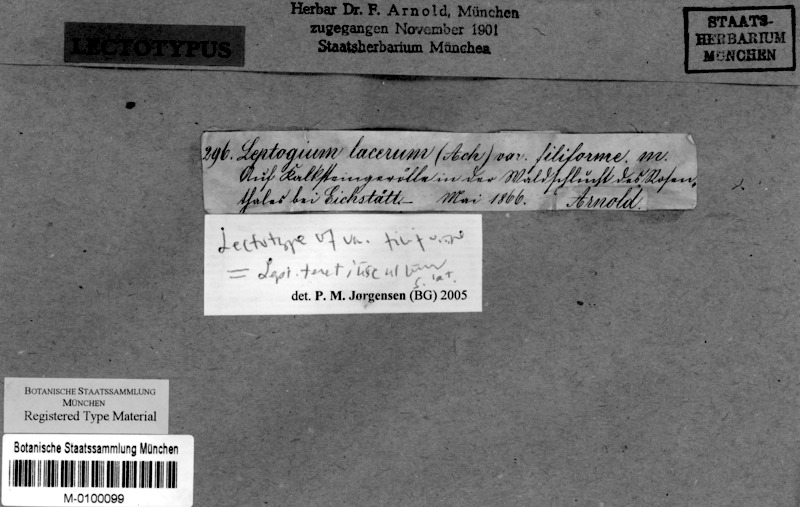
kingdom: Fungi
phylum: Ascomycota
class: Lecanoromycetes
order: Peltigerales
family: Collemataceae
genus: Leptogium
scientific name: Leptogium teretiusculum
